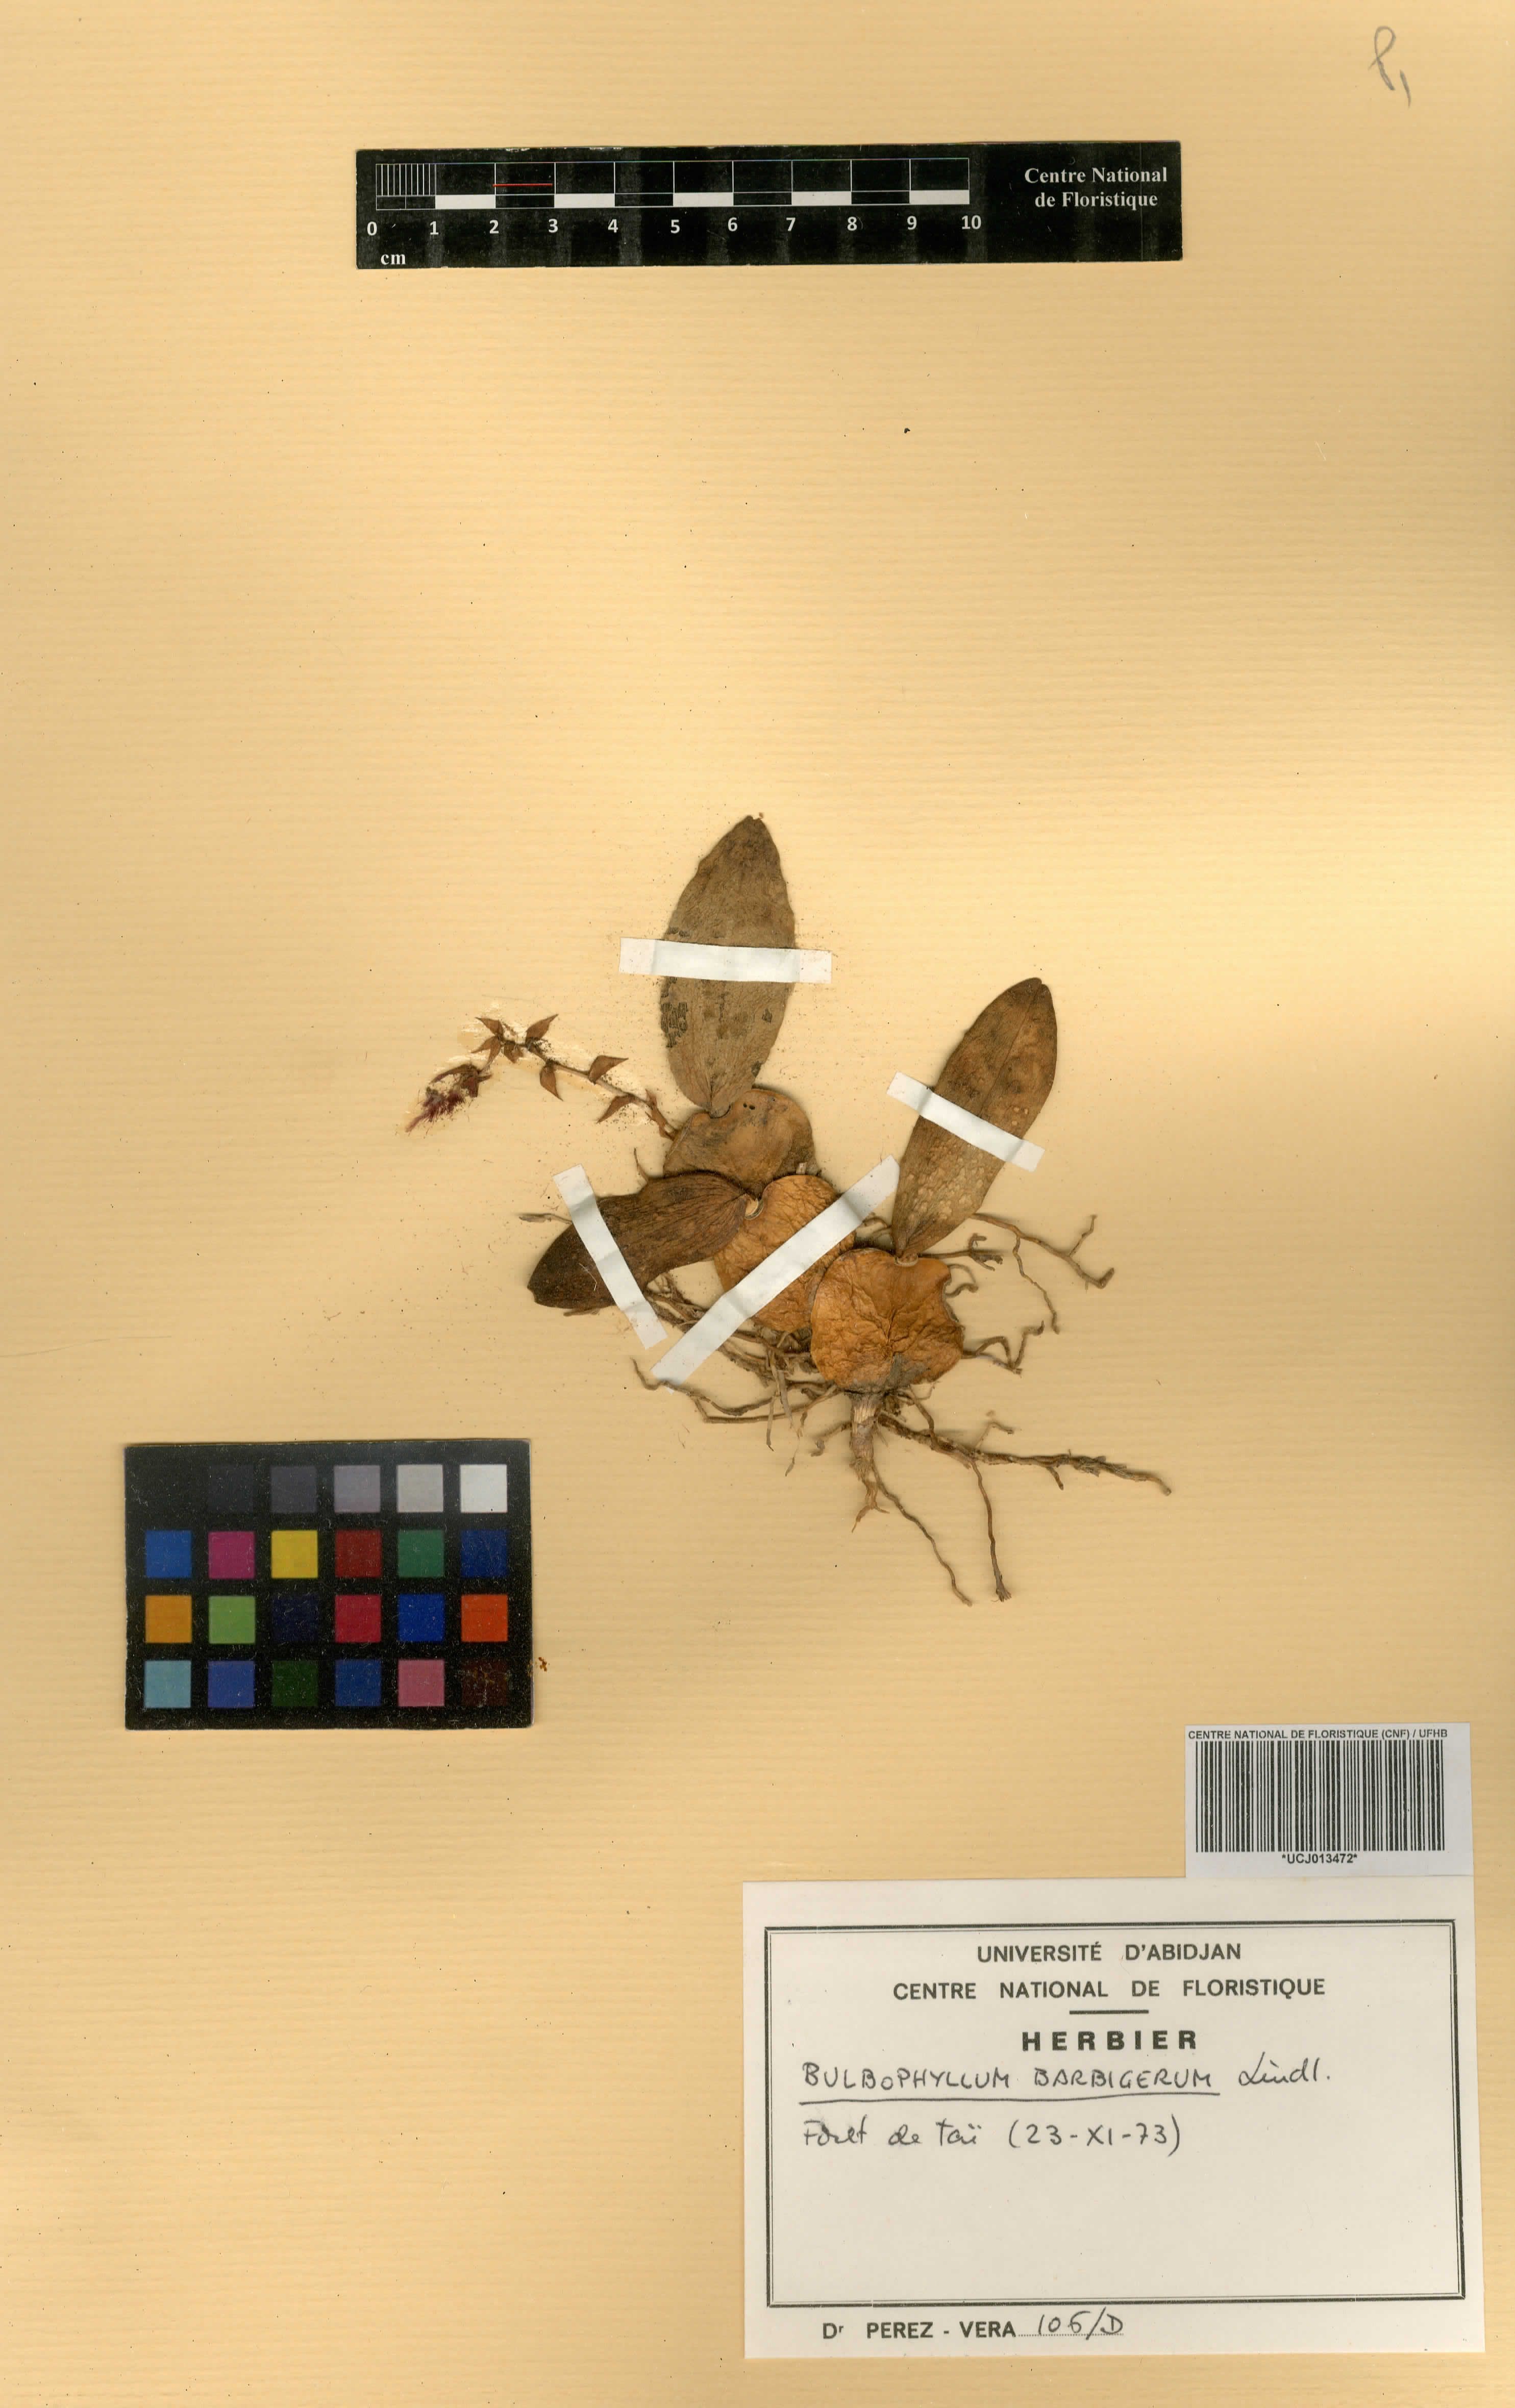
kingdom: Plantae
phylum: Tracheophyta
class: Liliopsida
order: Asparagales
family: Orchidaceae
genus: Bulbophyllum
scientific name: Bulbophyllum barbigerum
